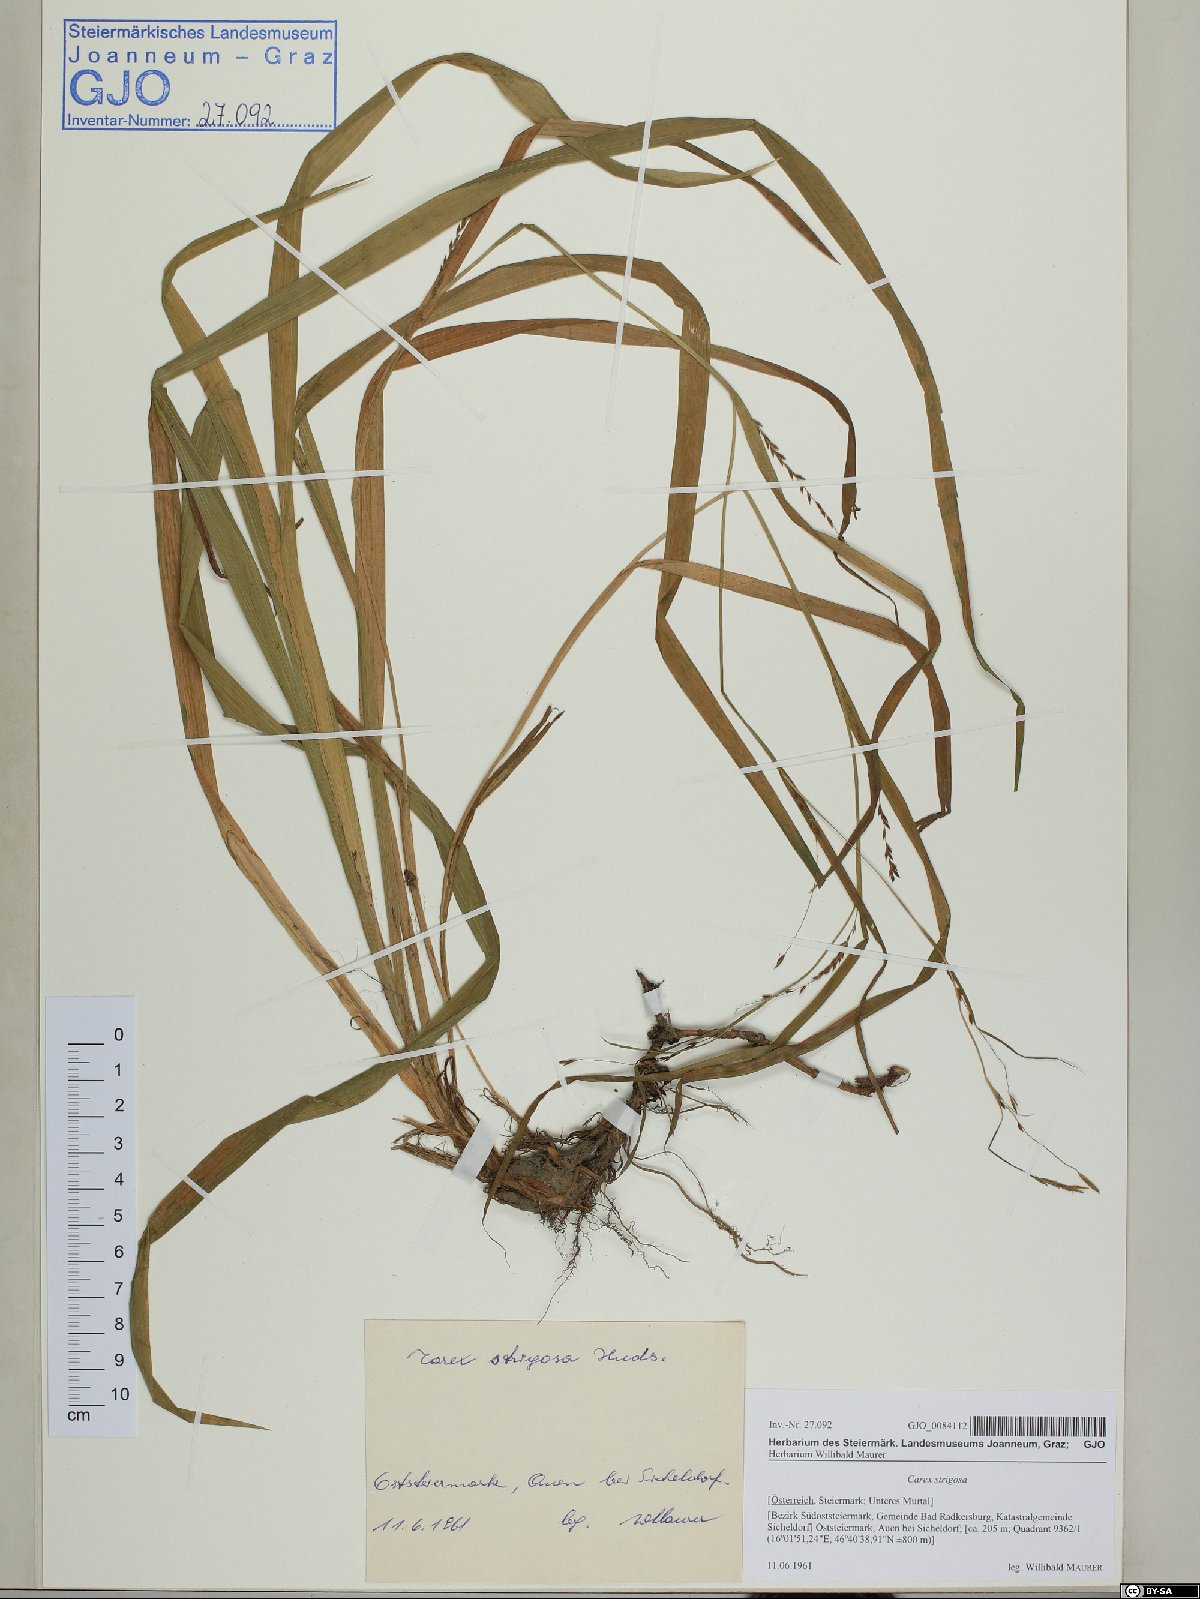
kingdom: Plantae
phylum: Tracheophyta
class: Liliopsida
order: Poales
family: Cyperaceae
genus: Carex
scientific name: Carex strigosa
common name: Thin-spiked wood-sedge
